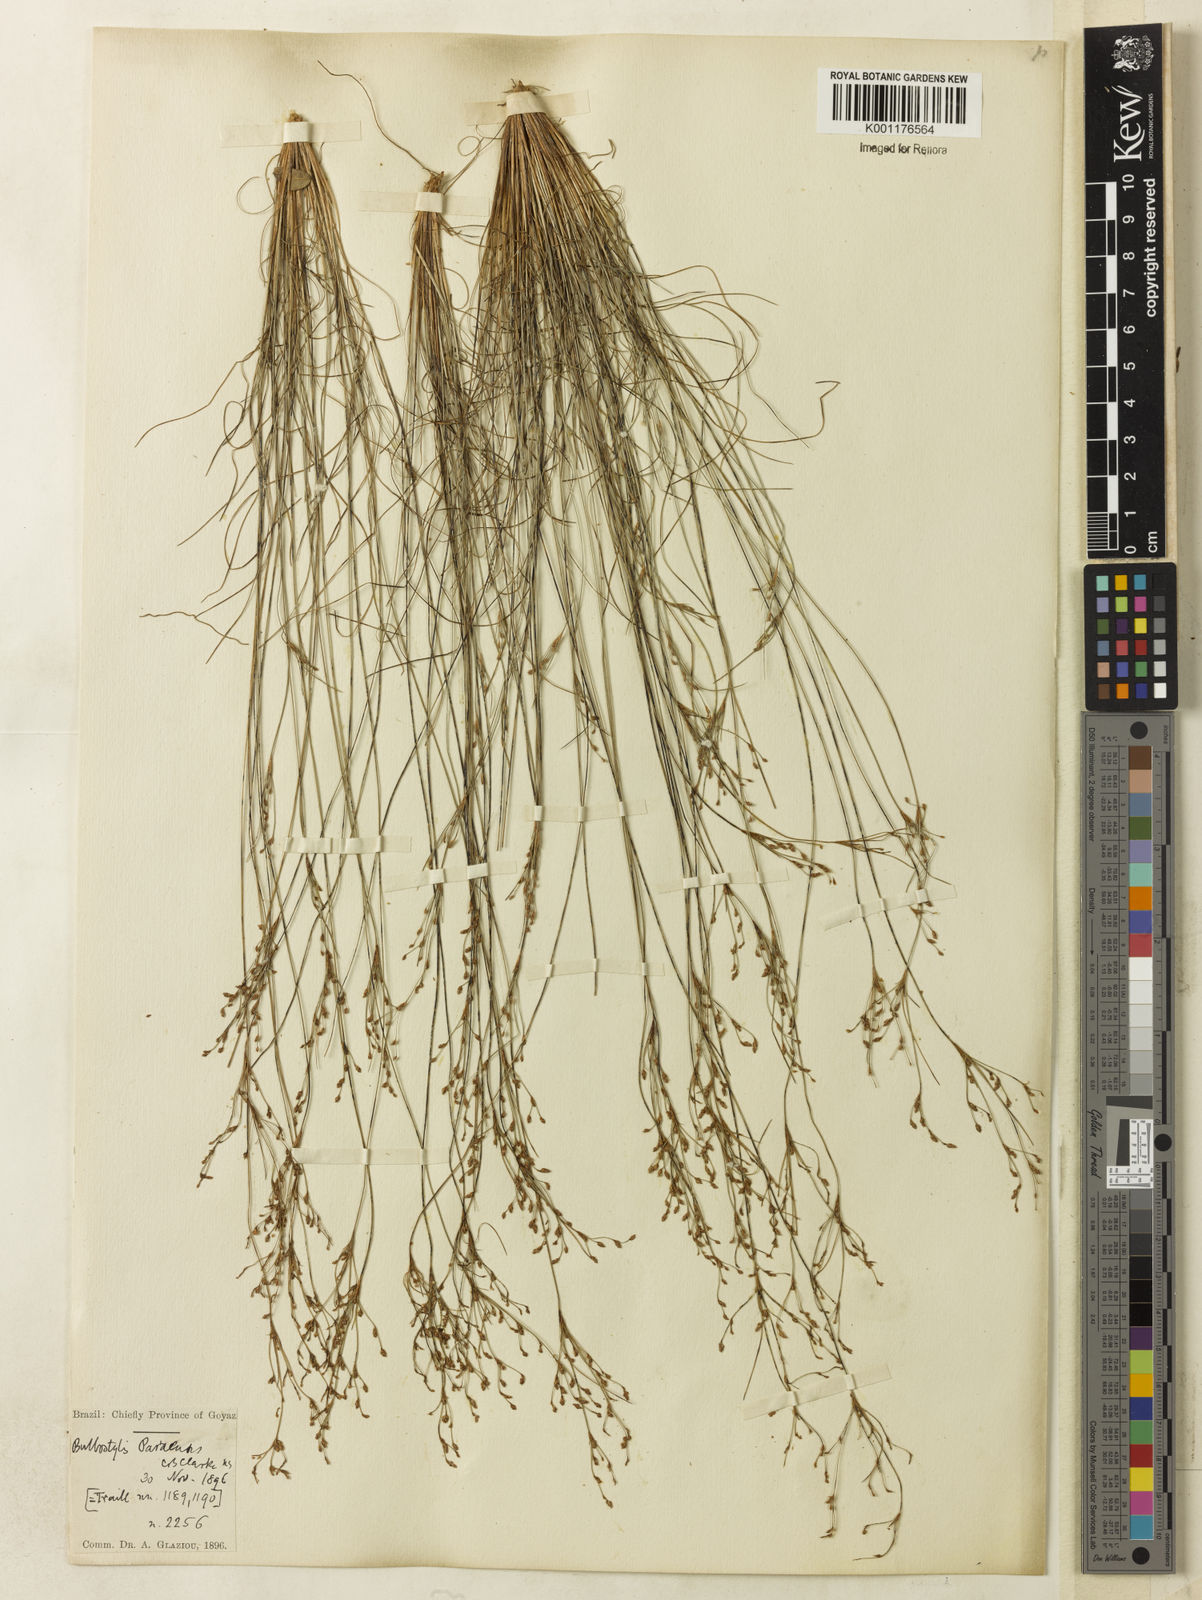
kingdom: Plantae
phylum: Tracheophyta
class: Liliopsida
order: Poales
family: Cyperaceae
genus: Bulbostylis
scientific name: Bulbostylis paraensis
